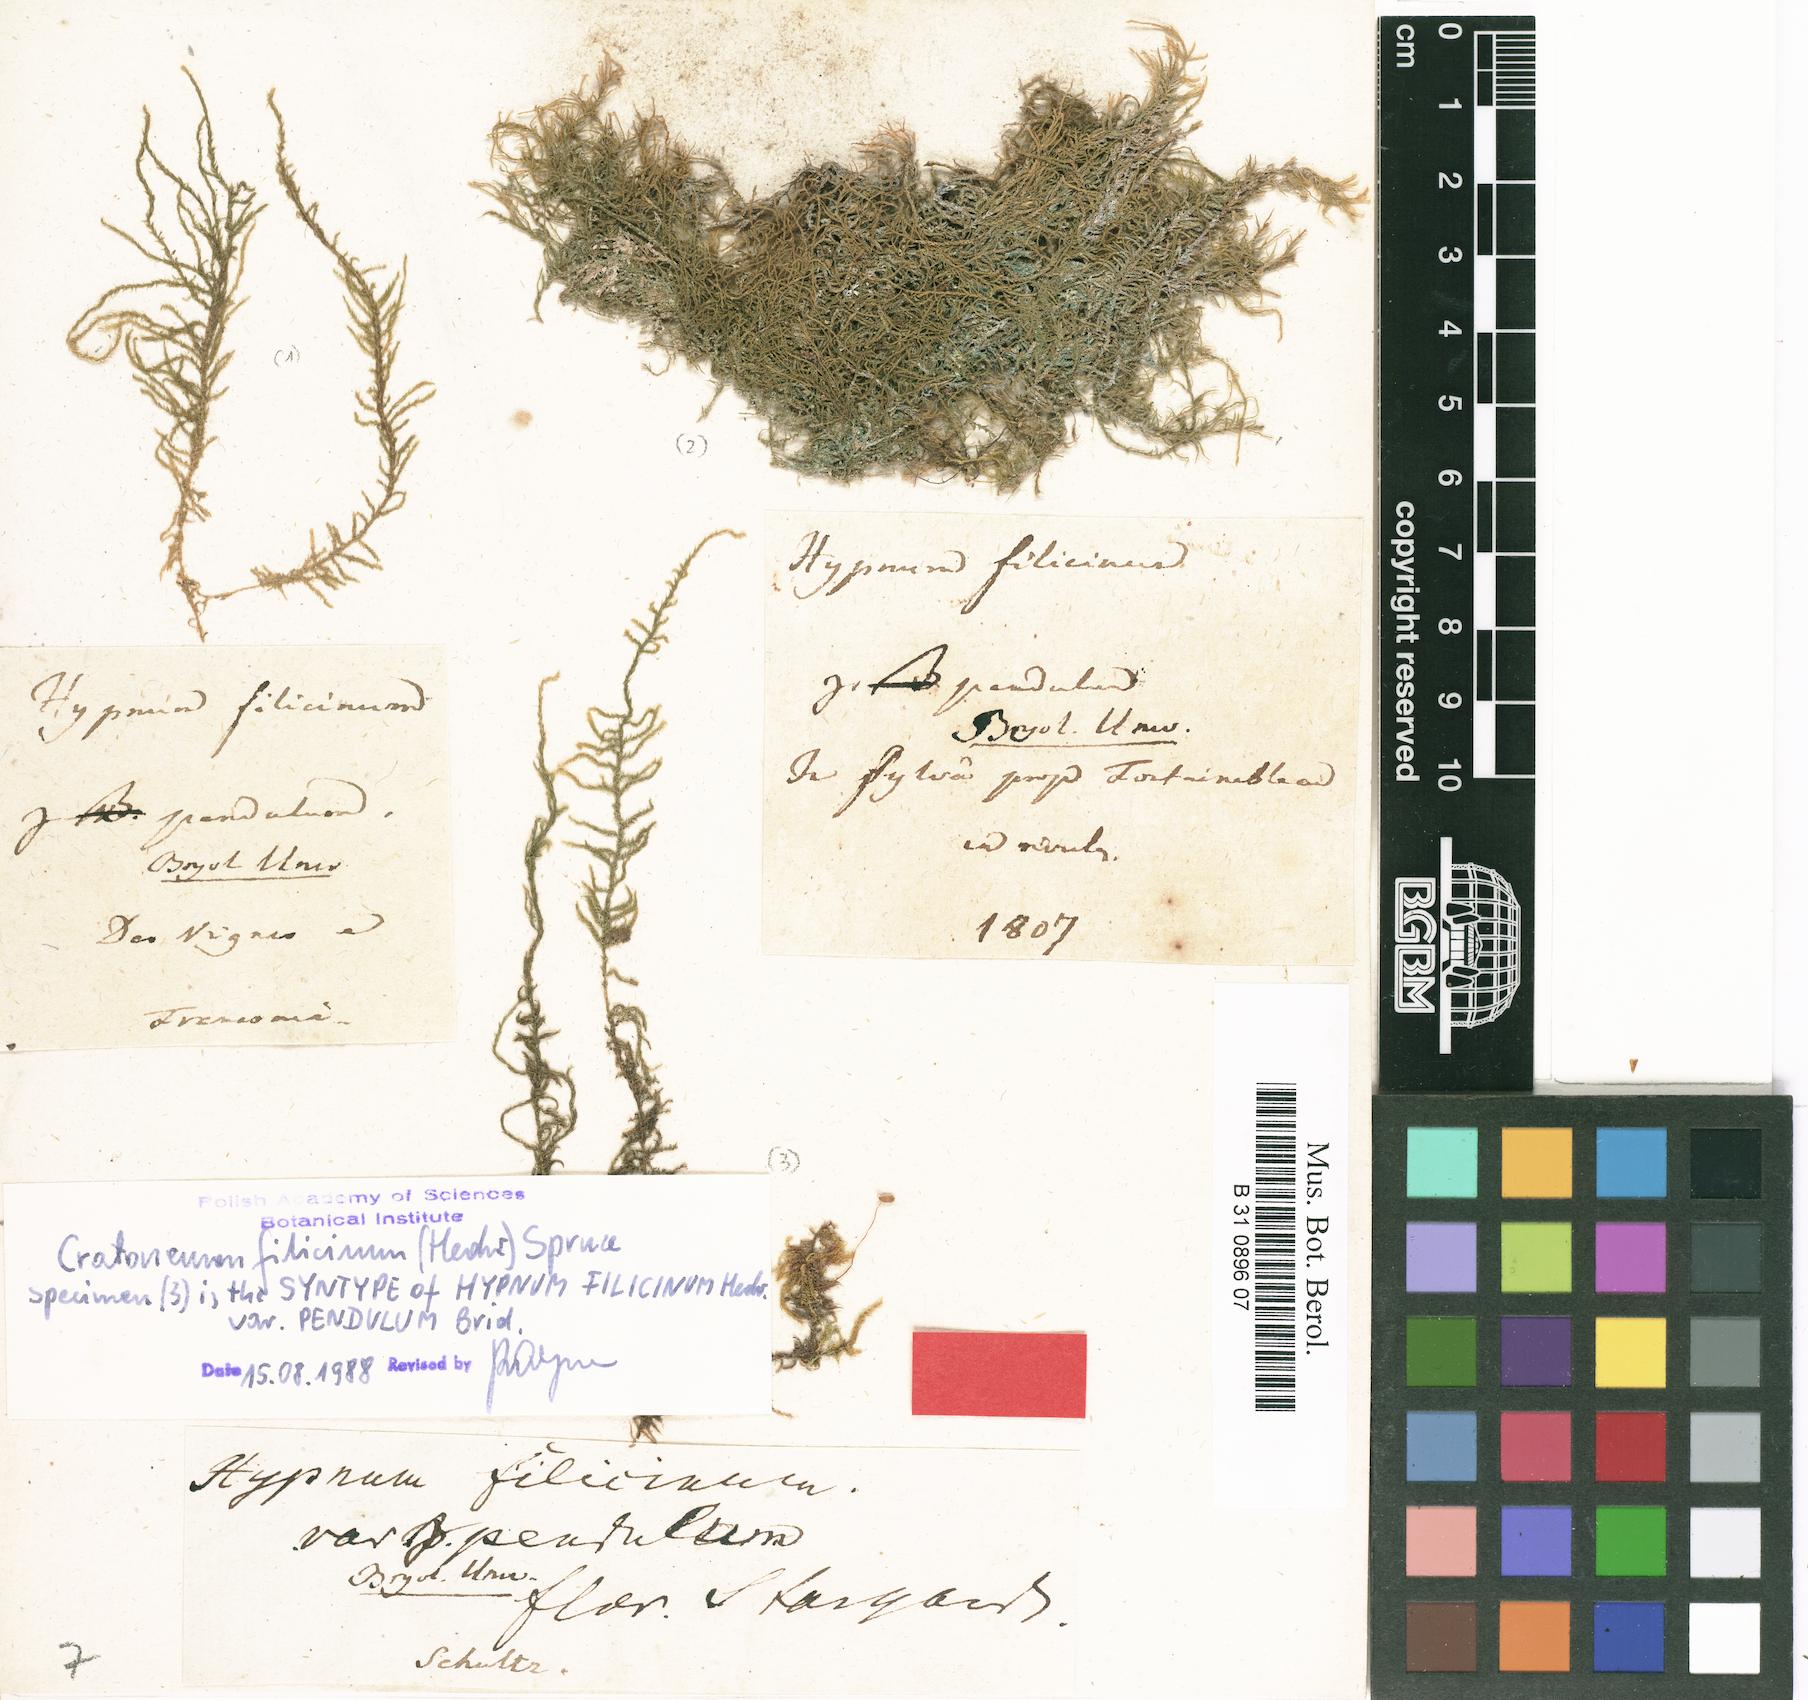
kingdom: Plantae
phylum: Bryophyta
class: Bryopsida
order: Hypnales
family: Amblystegiaceae
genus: Cratoneuron
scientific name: Cratoneuron filicinum
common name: Fern-leaved hook moss
